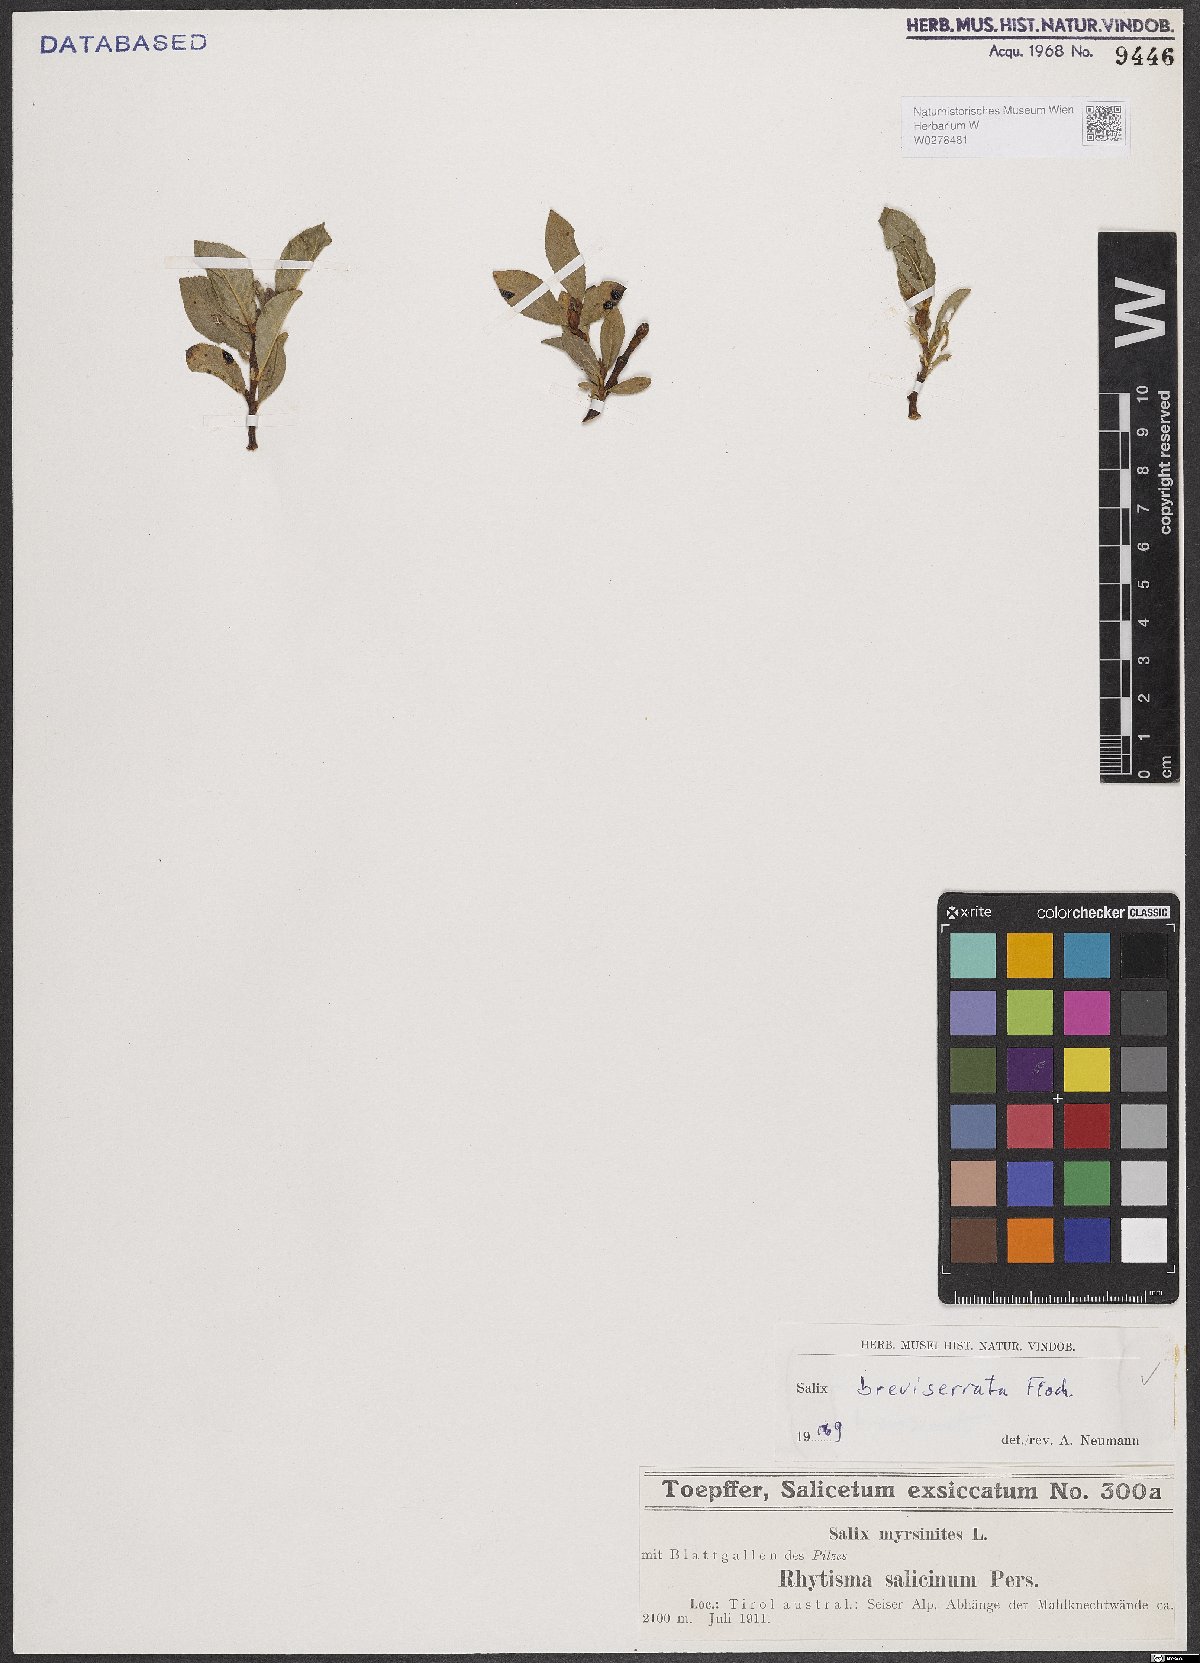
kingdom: Plantae
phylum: Tracheophyta
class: Magnoliopsida
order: Malpighiales
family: Salicaceae
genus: Salix
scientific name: Salix breviserrata
